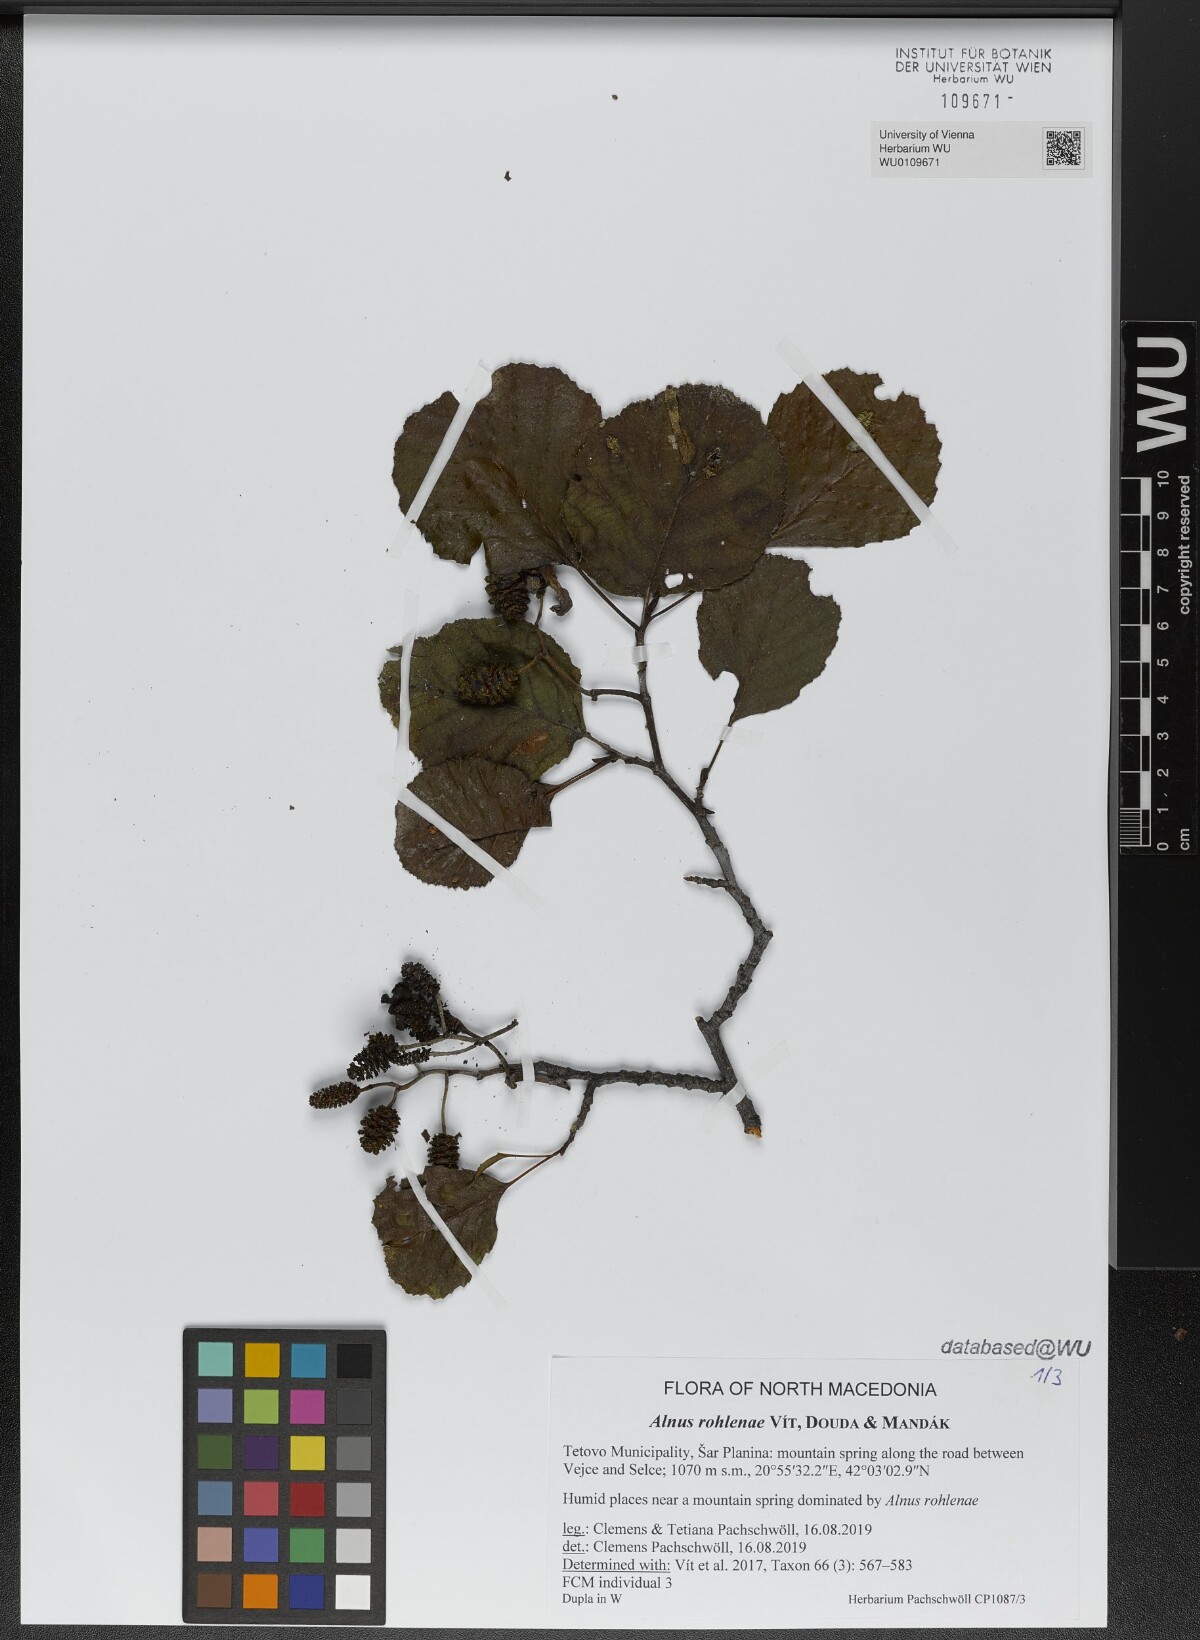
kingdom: Plantae
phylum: Tracheophyta
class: Magnoliopsida
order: Fagales
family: Betulaceae
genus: Alnus
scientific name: Alnus rohlenae
